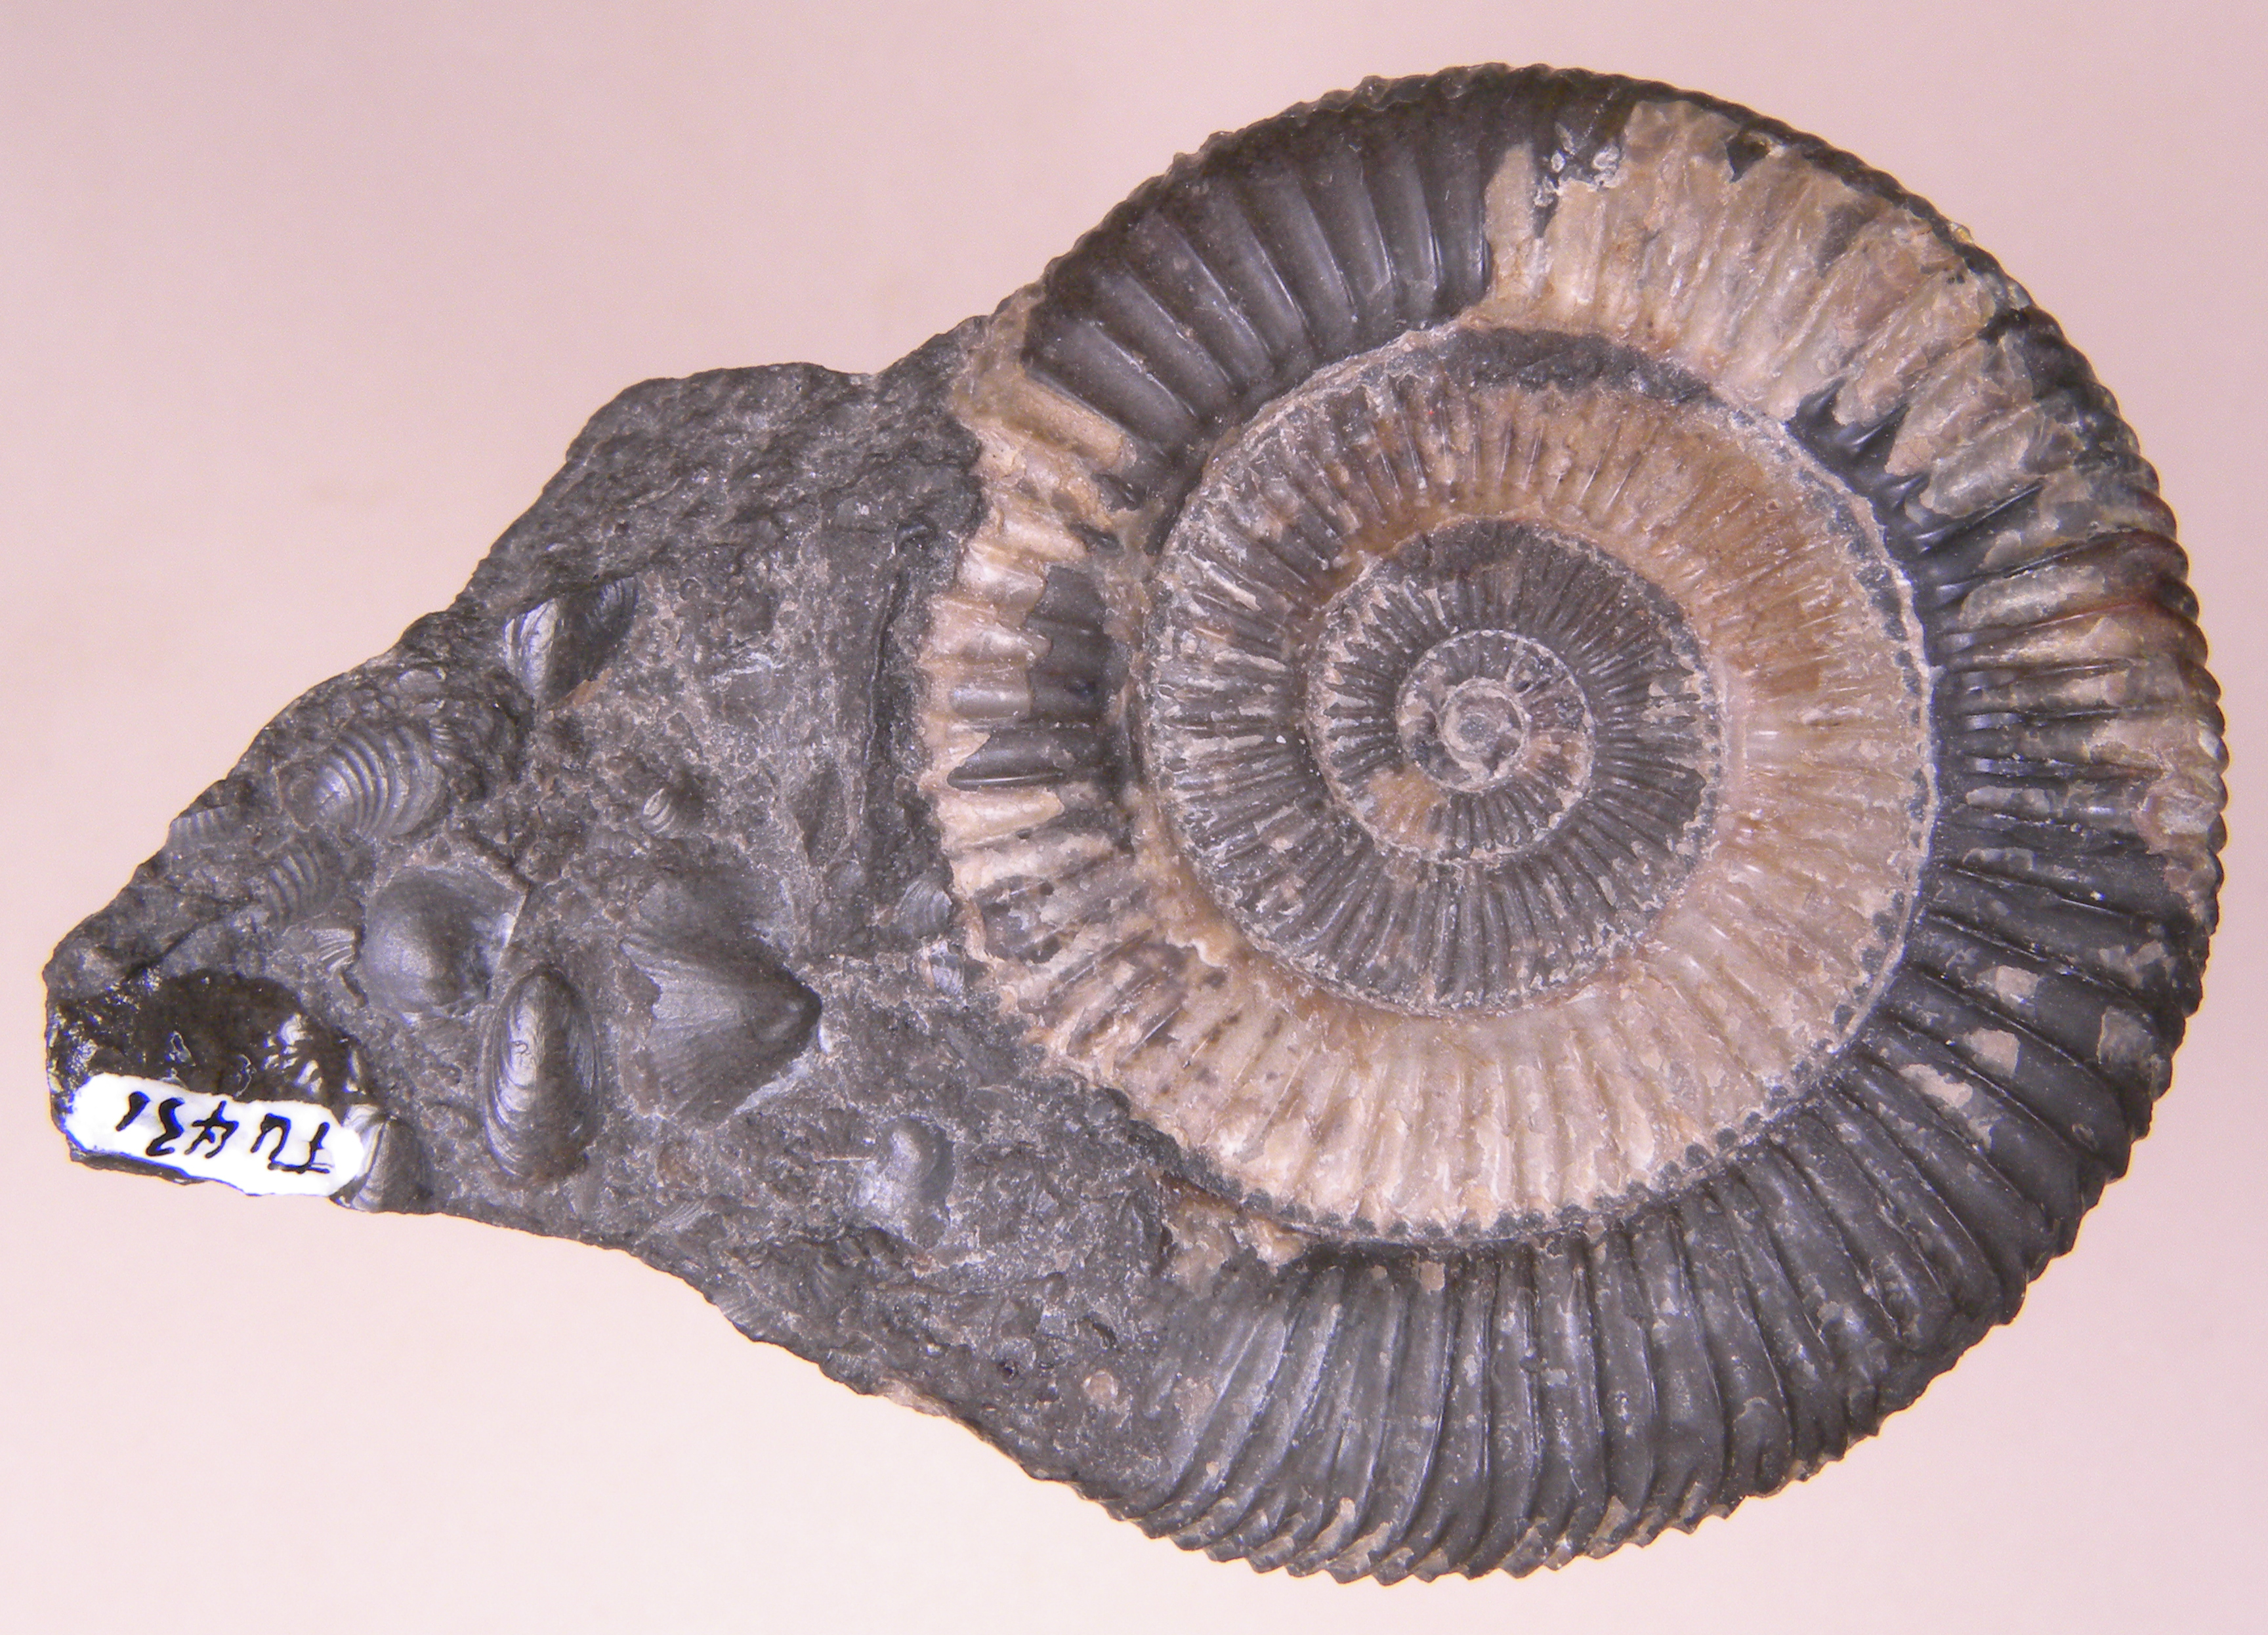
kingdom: Animalia
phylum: Mollusca
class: Cephalopoda
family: Dactylioceratidae
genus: Dactylioceras
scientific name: Dactylioceras athleticum
